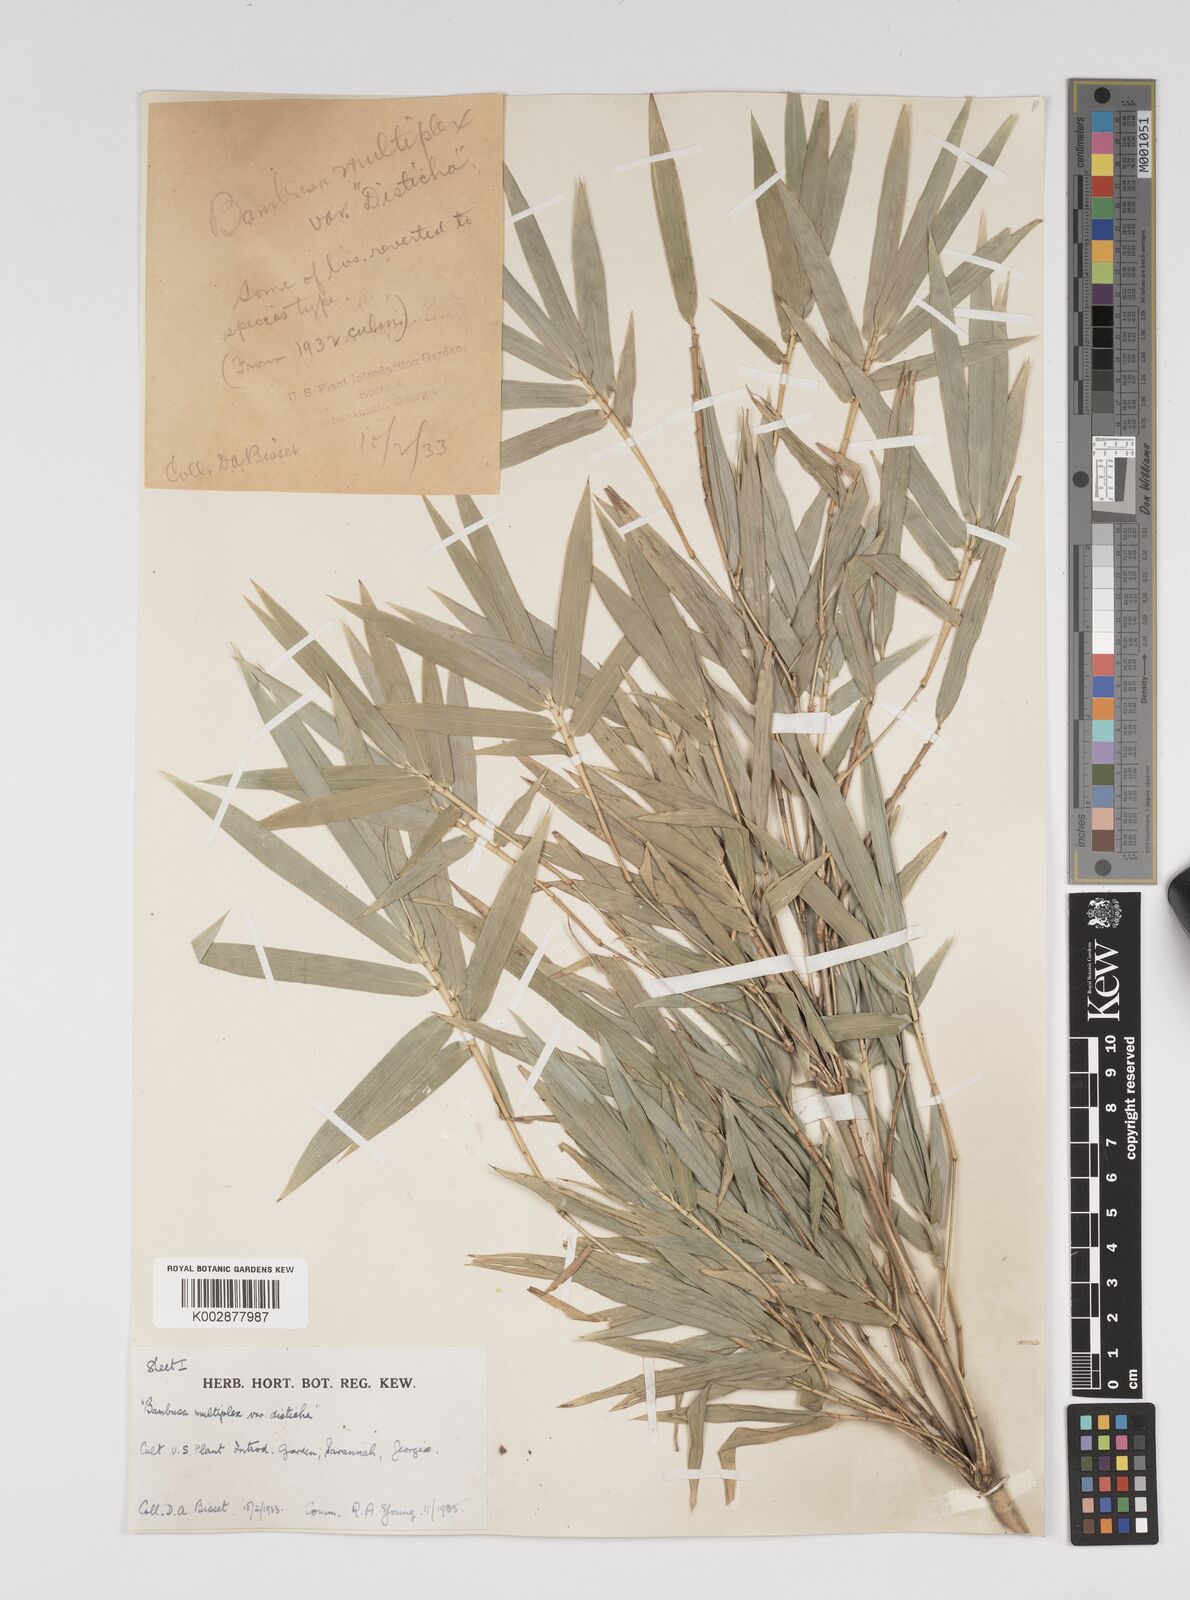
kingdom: Plantae
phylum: Tracheophyta
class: Liliopsida
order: Poales
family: Poaceae
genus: Bambusa
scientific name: Bambusa
